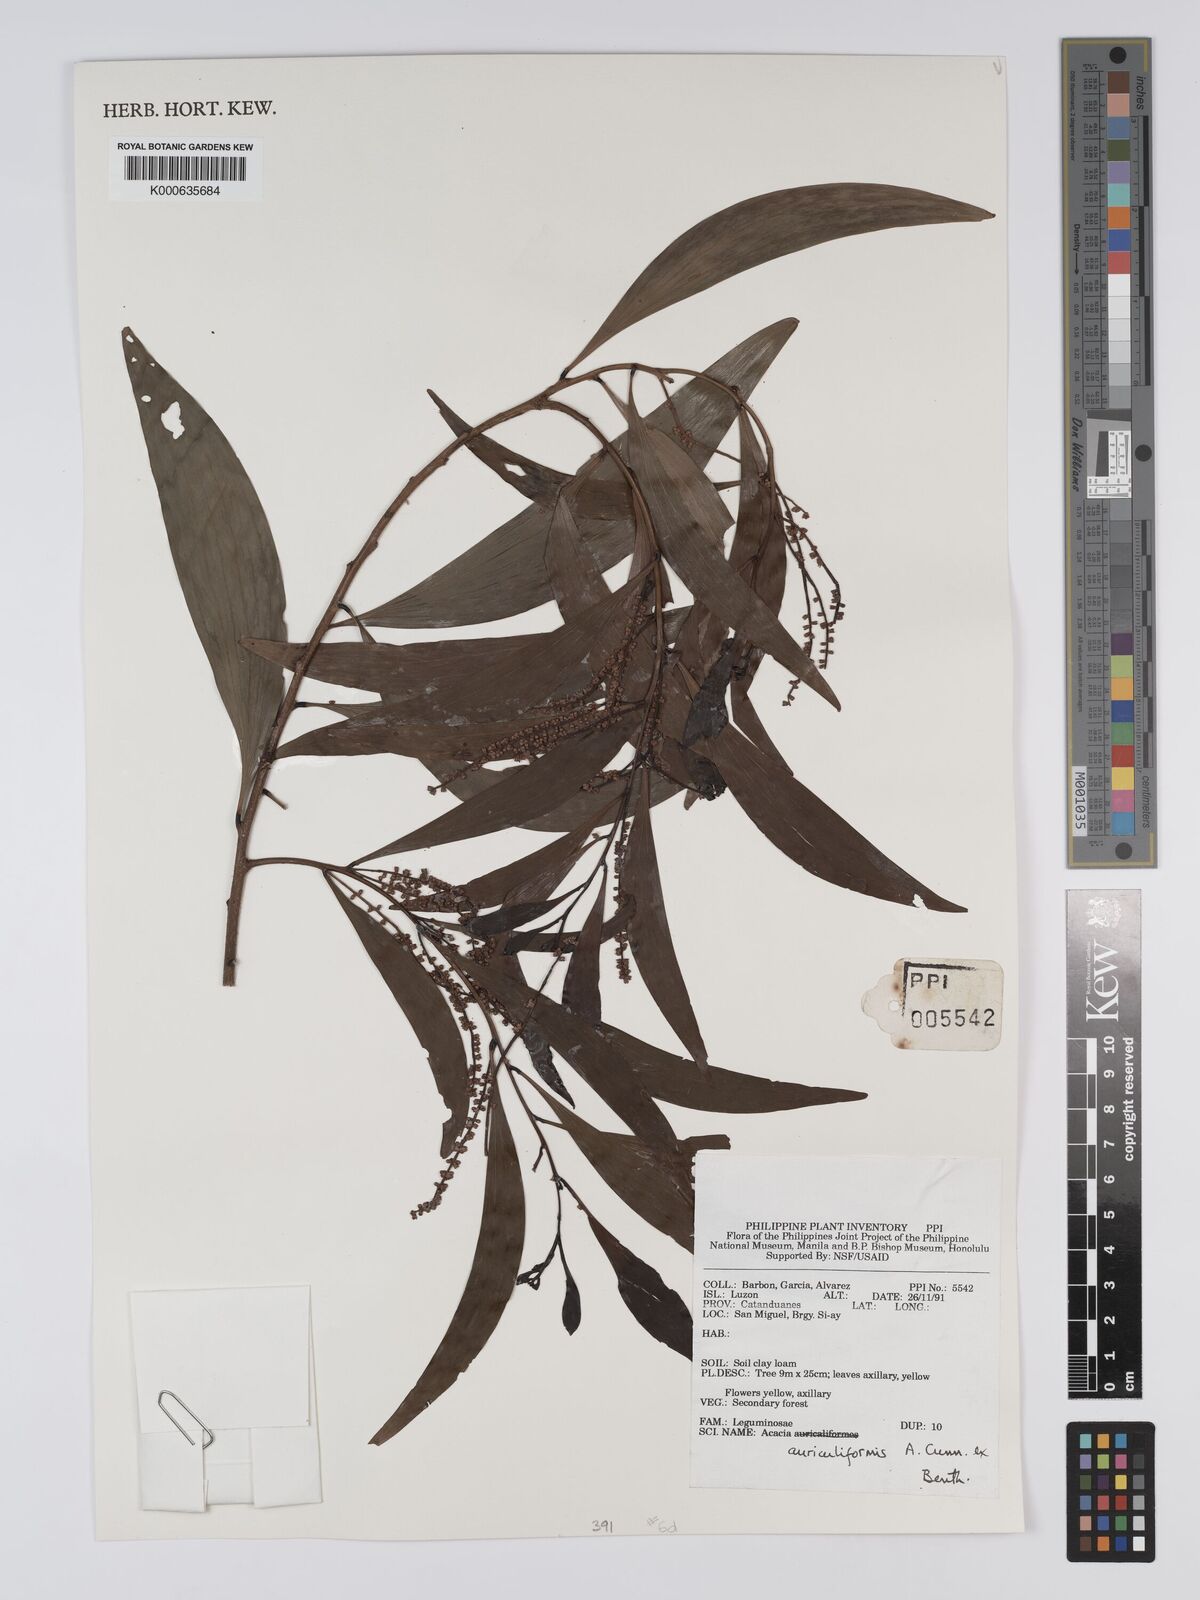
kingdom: Plantae
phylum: Tracheophyta
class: Magnoliopsida
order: Fabales
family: Fabaceae
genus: Acacia
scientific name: Acacia auriculiformis
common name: Earleaf acacia
